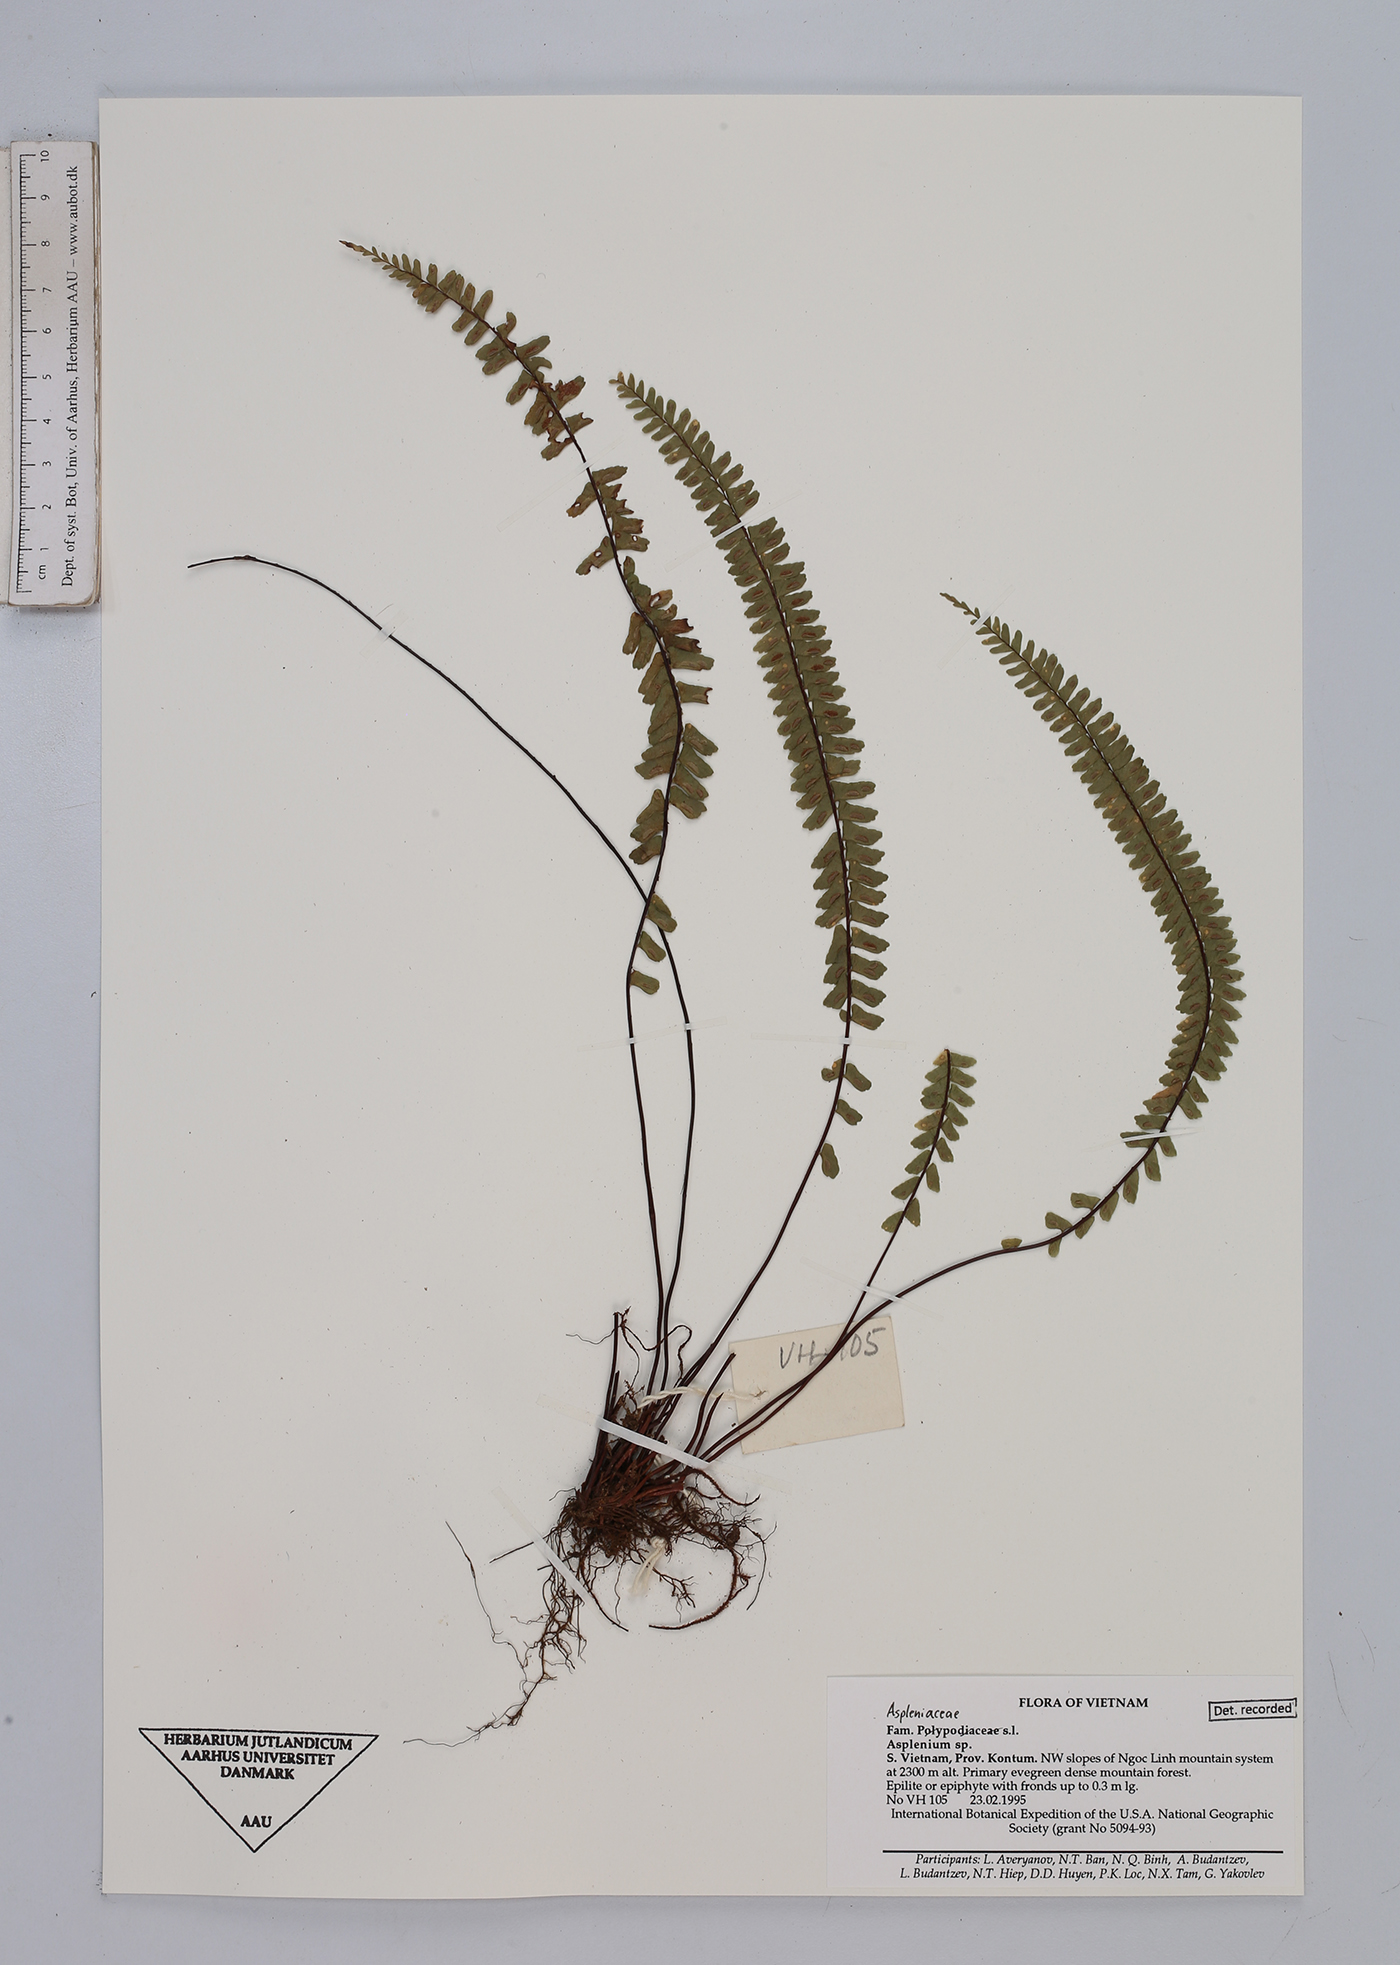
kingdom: Plantae
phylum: Tracheophyta
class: Polypodiopsida
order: Polypodiales
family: Aspleniaceae
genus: Asplenium
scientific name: Asplenium
